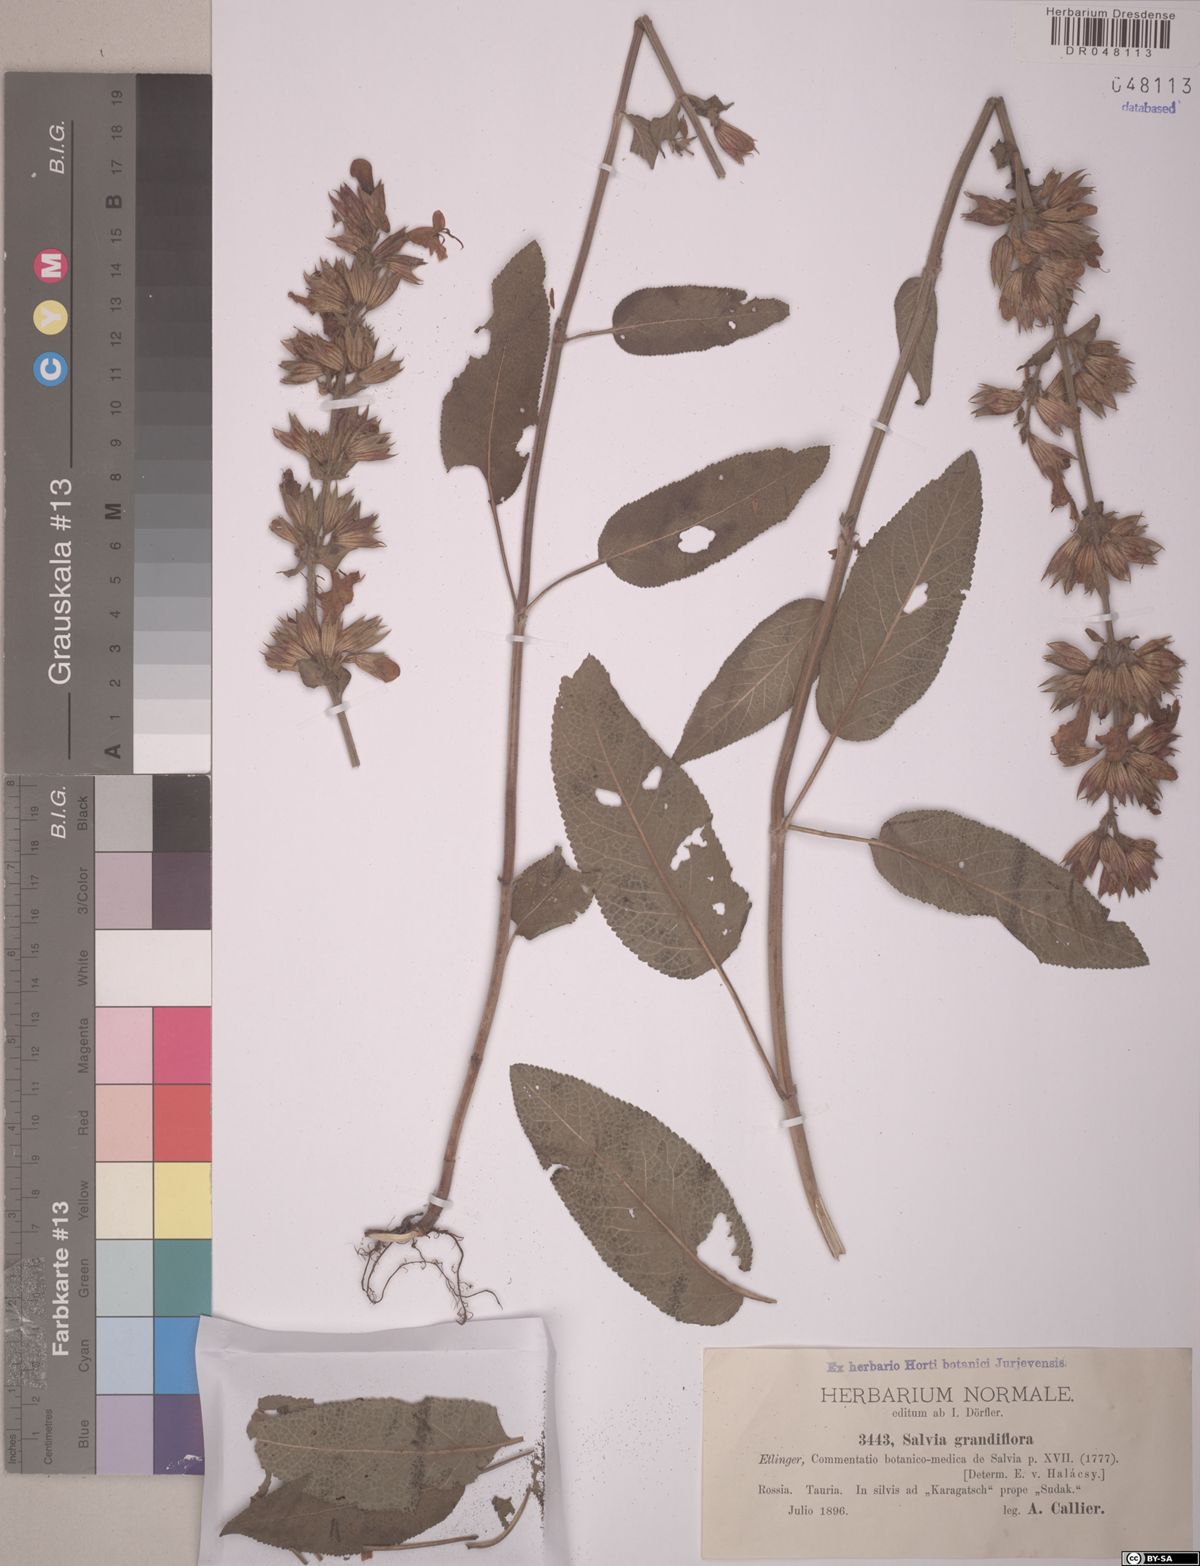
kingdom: Plantae
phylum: Tracheophyta
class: Magnoliopsida
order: Lamiales
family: Lamiaceae
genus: Salvia
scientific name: Salvia grandiflora
